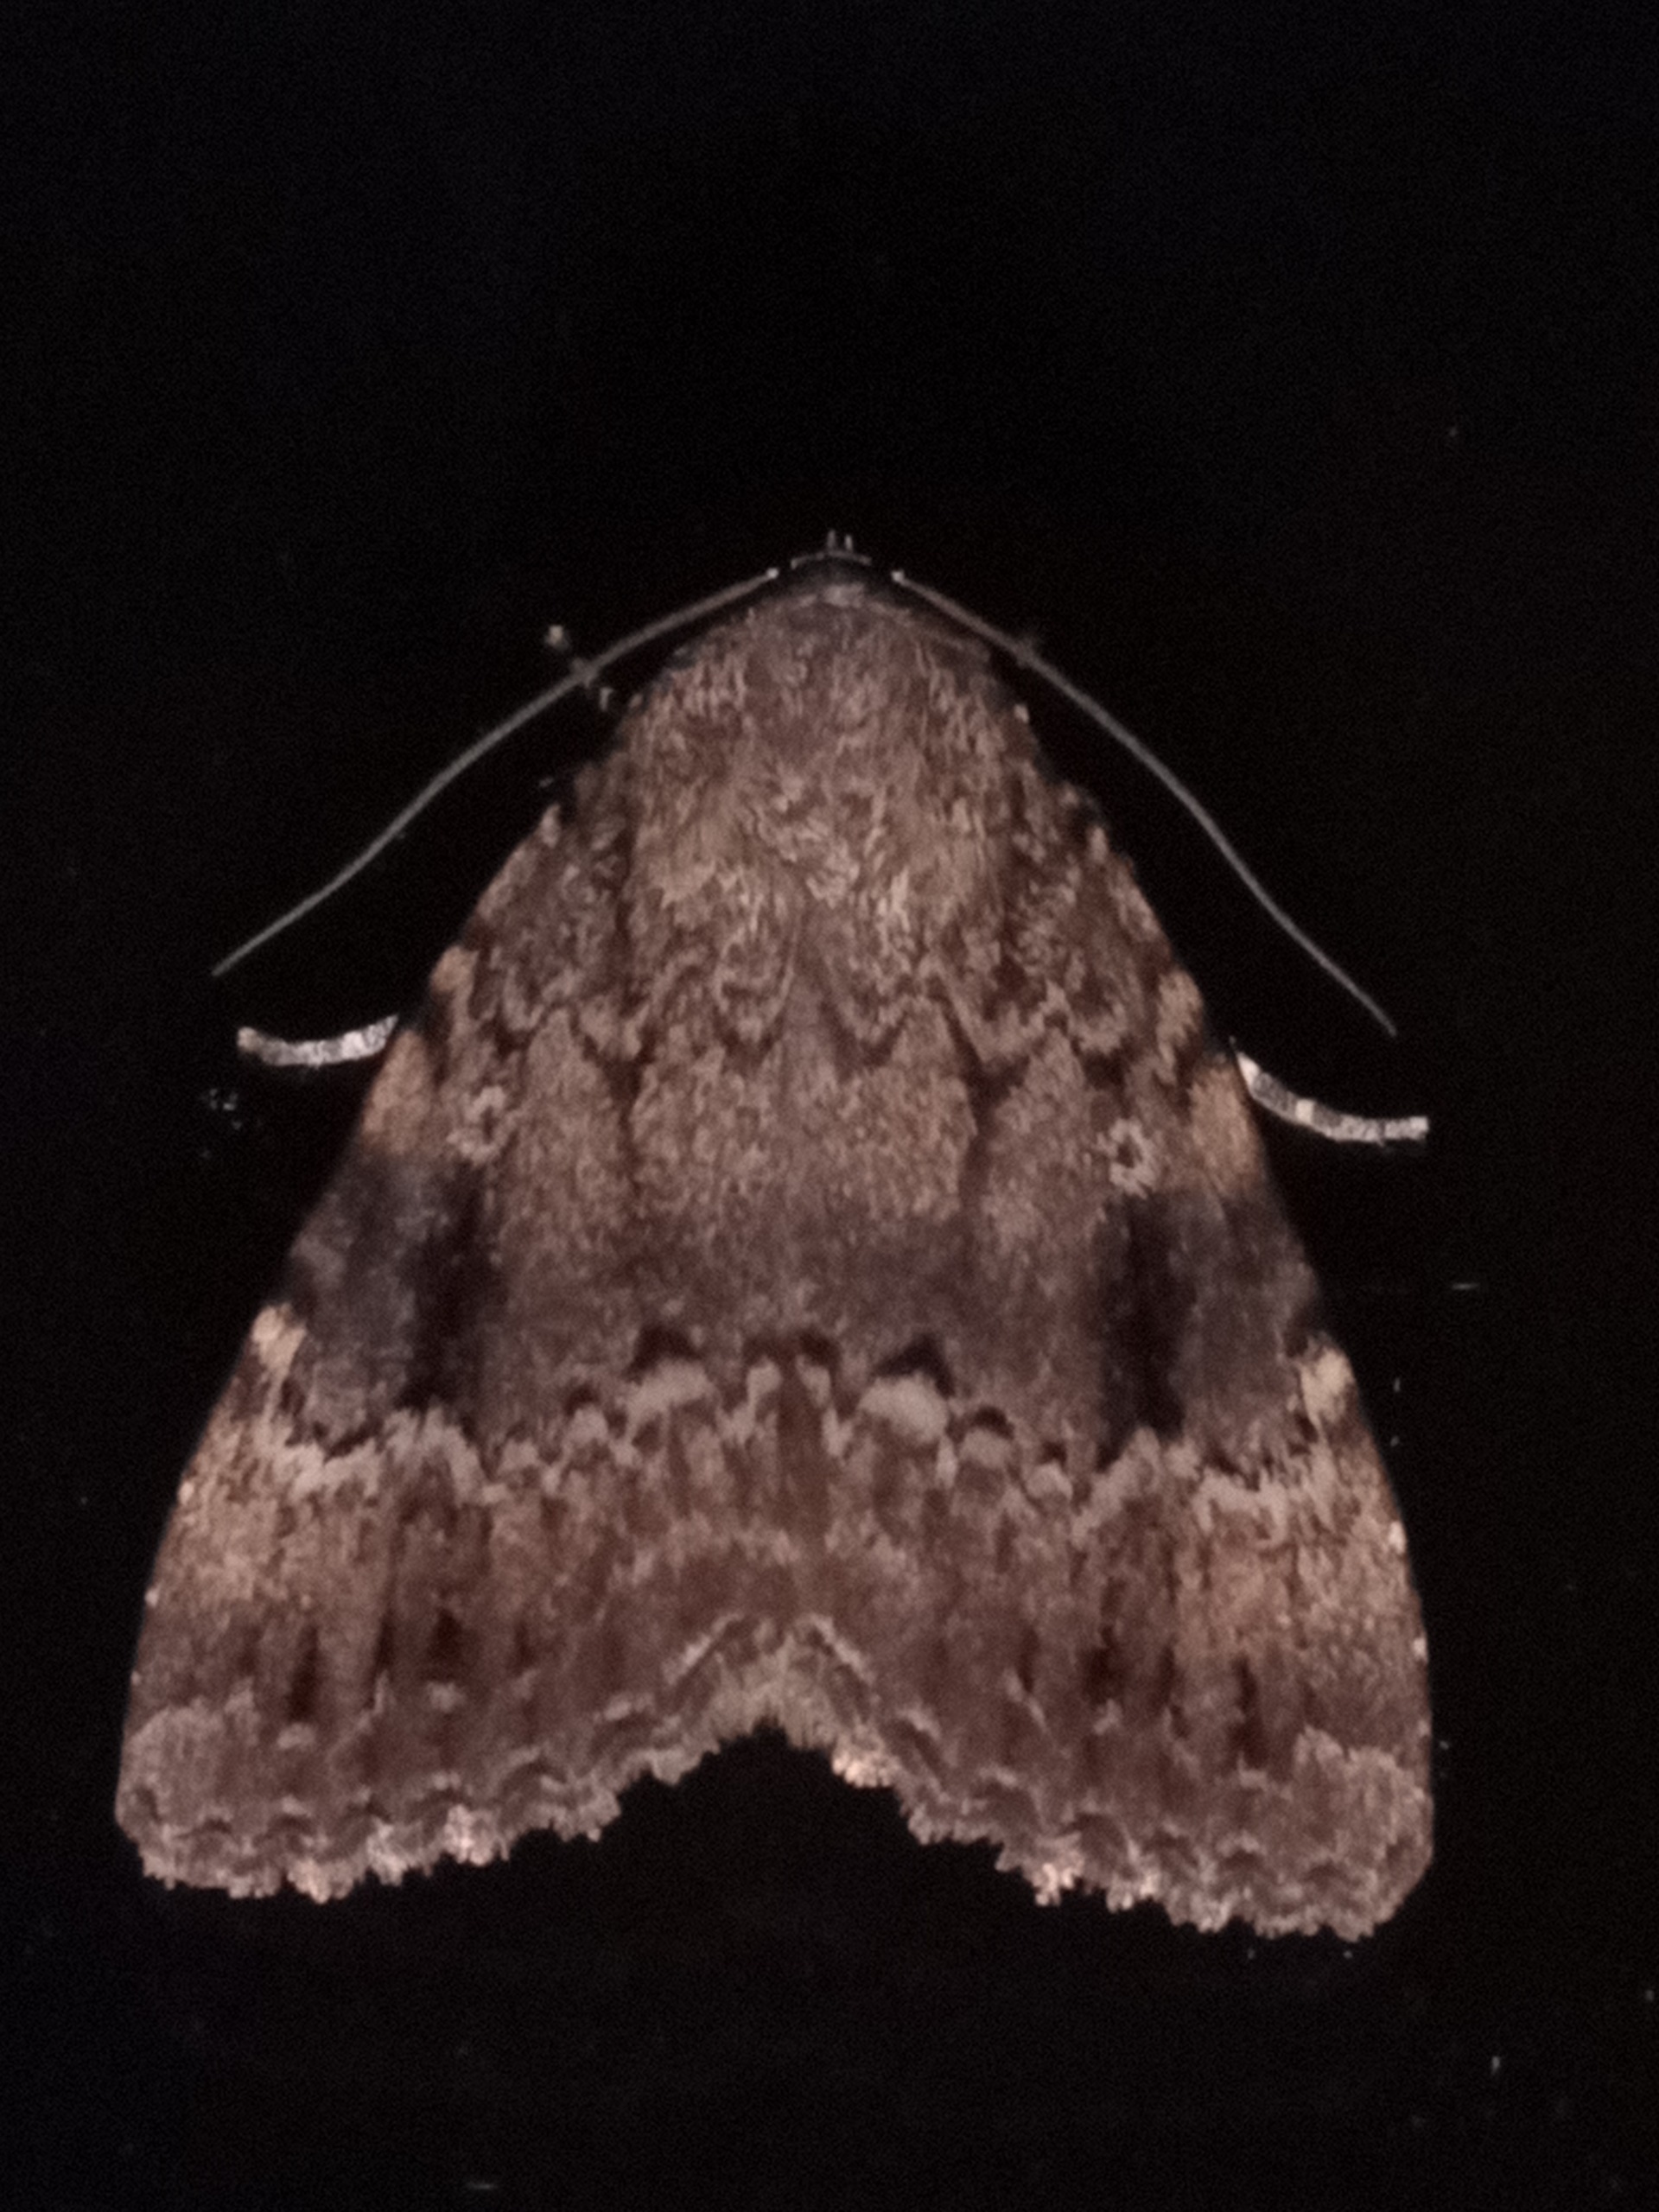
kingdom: Animalia
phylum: Arthropoda
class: Insecta
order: Lepidoptera
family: Noctuidae
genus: Amphipyra
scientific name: Amphipyra pyramidea
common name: Pyramideugle
